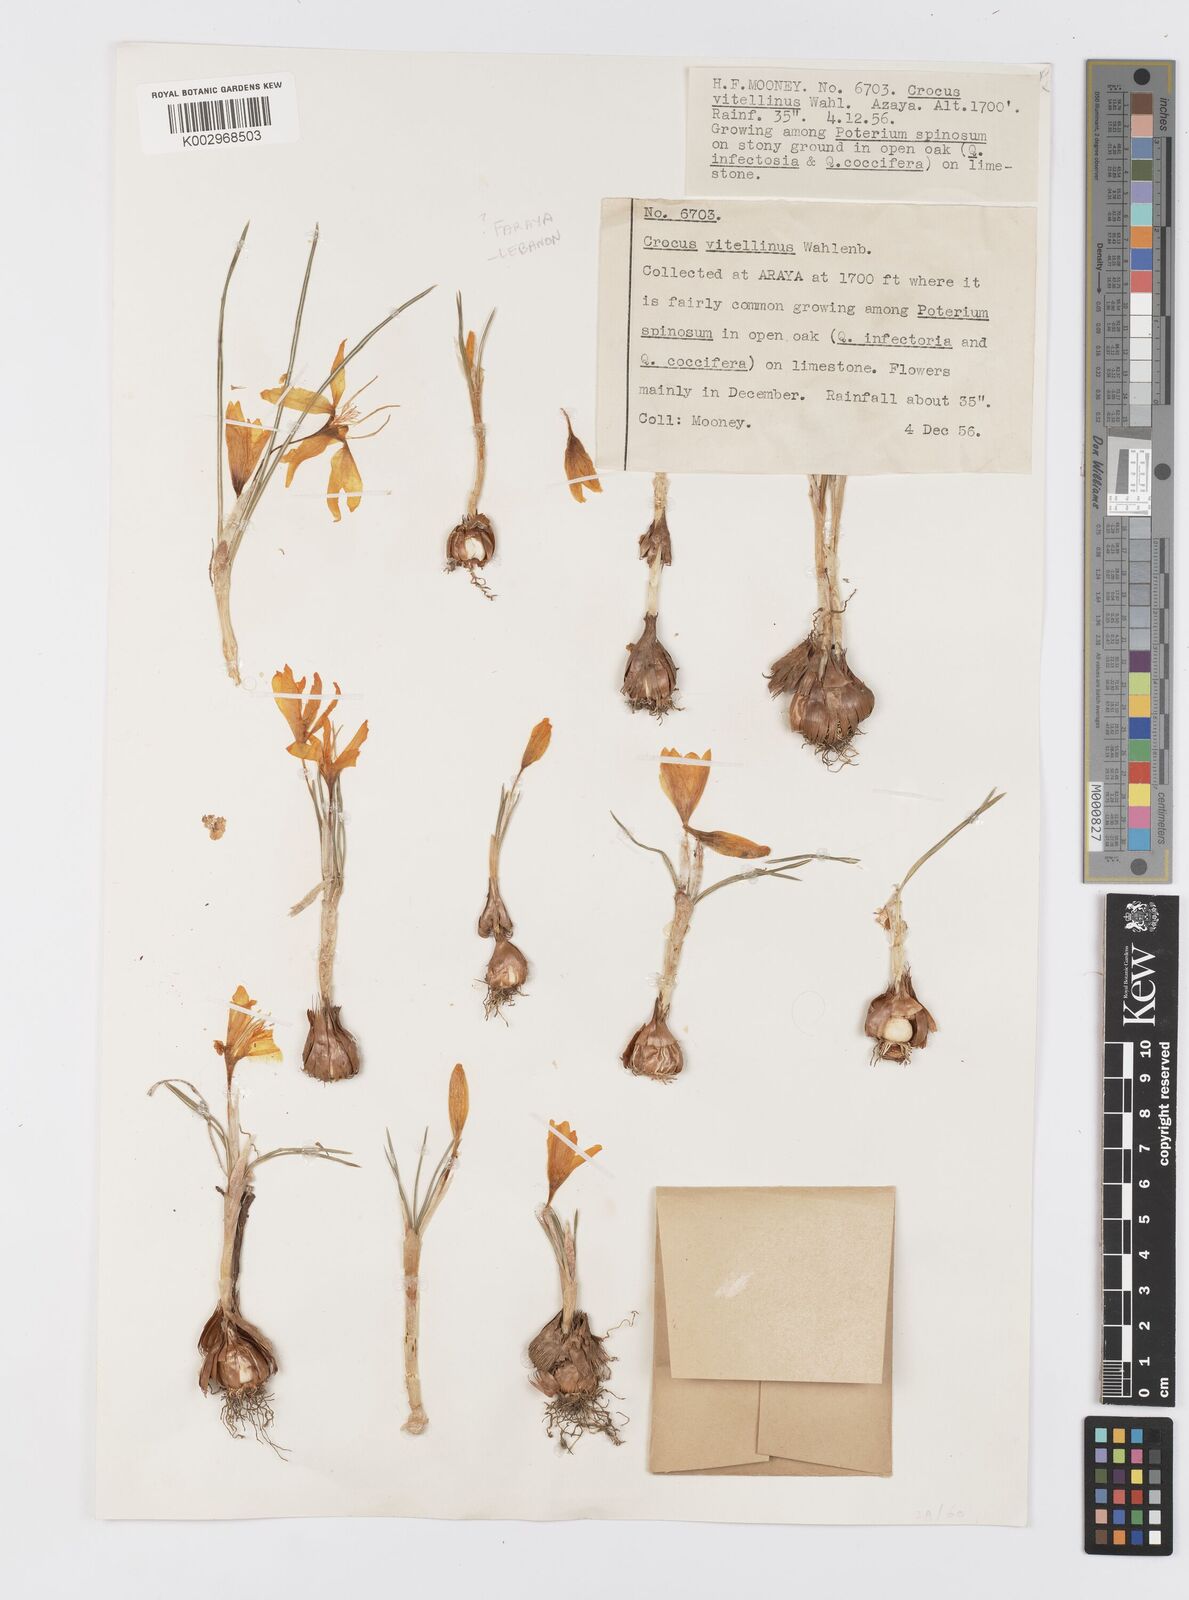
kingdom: Plantae
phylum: Tracheophyta
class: Liliopsida
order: Asparagales
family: Iridaceae
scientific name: Iridaceae
